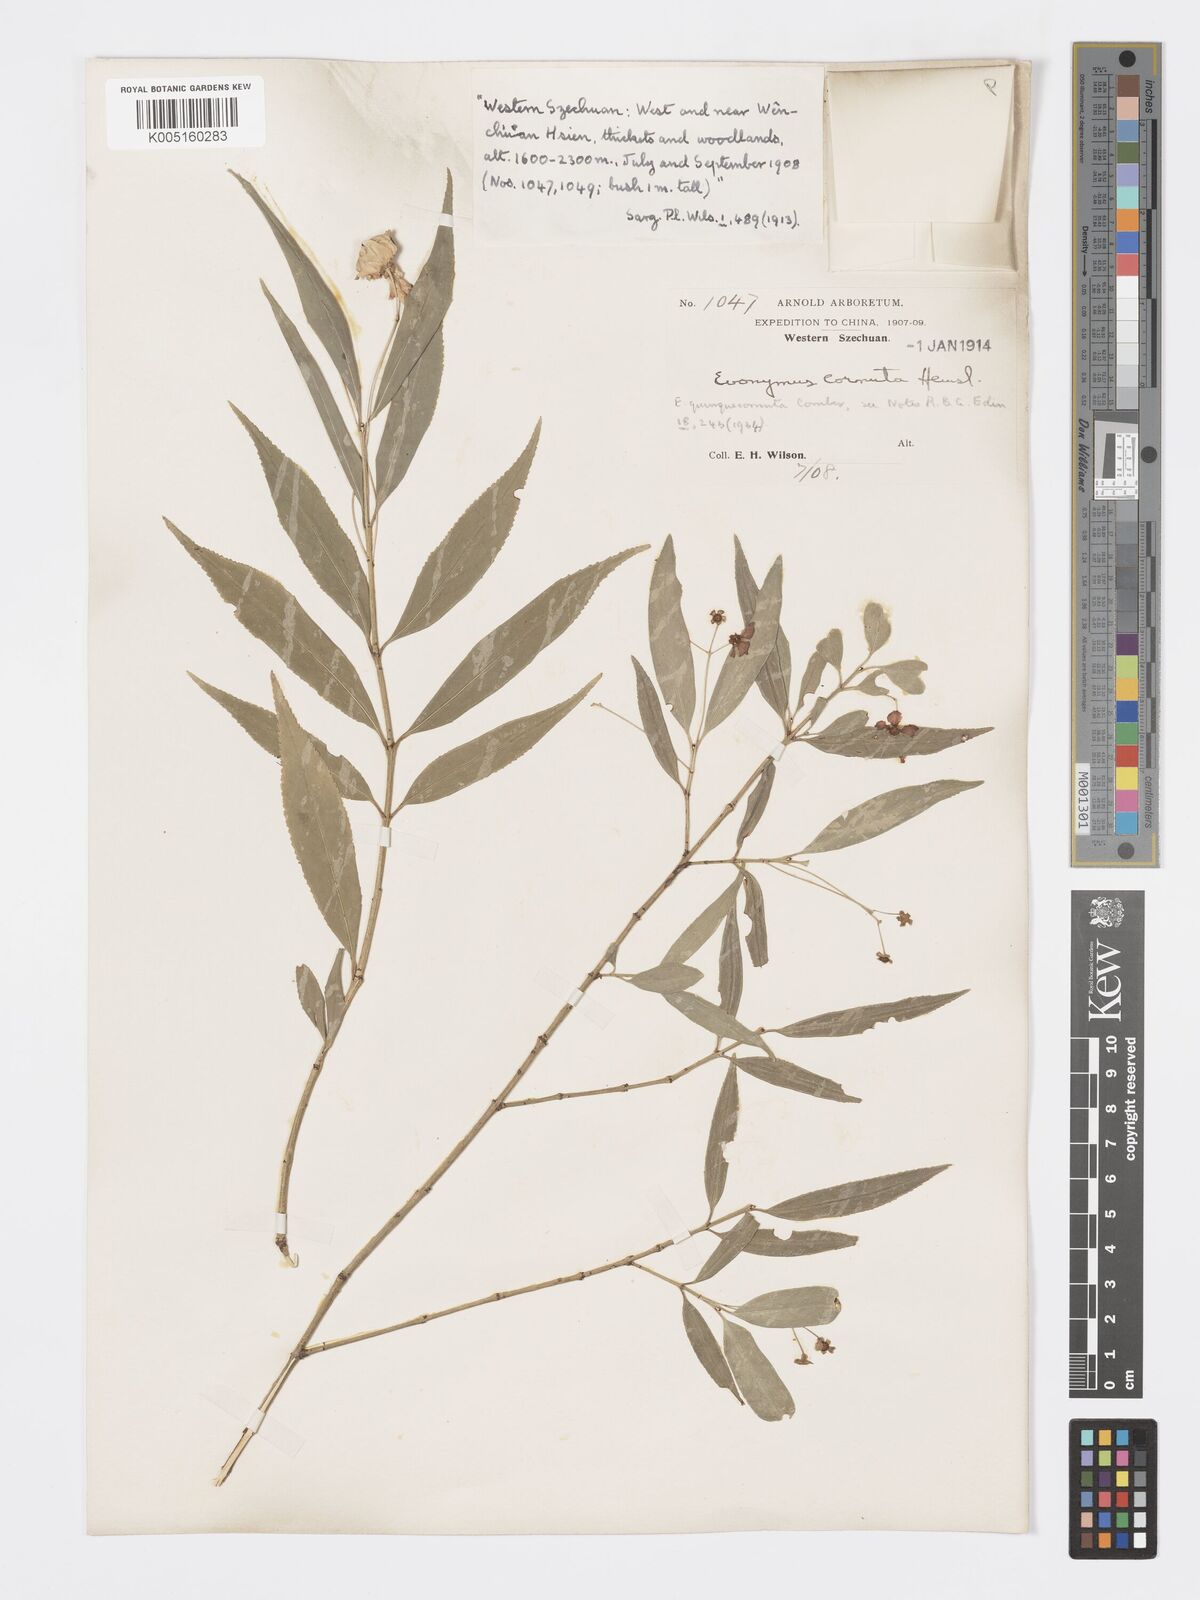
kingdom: Plantae
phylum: Tracheophyta
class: Magnoliopsida
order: Celastrales
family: Celastraceae
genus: Euonymus
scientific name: Euonymus cornutus
